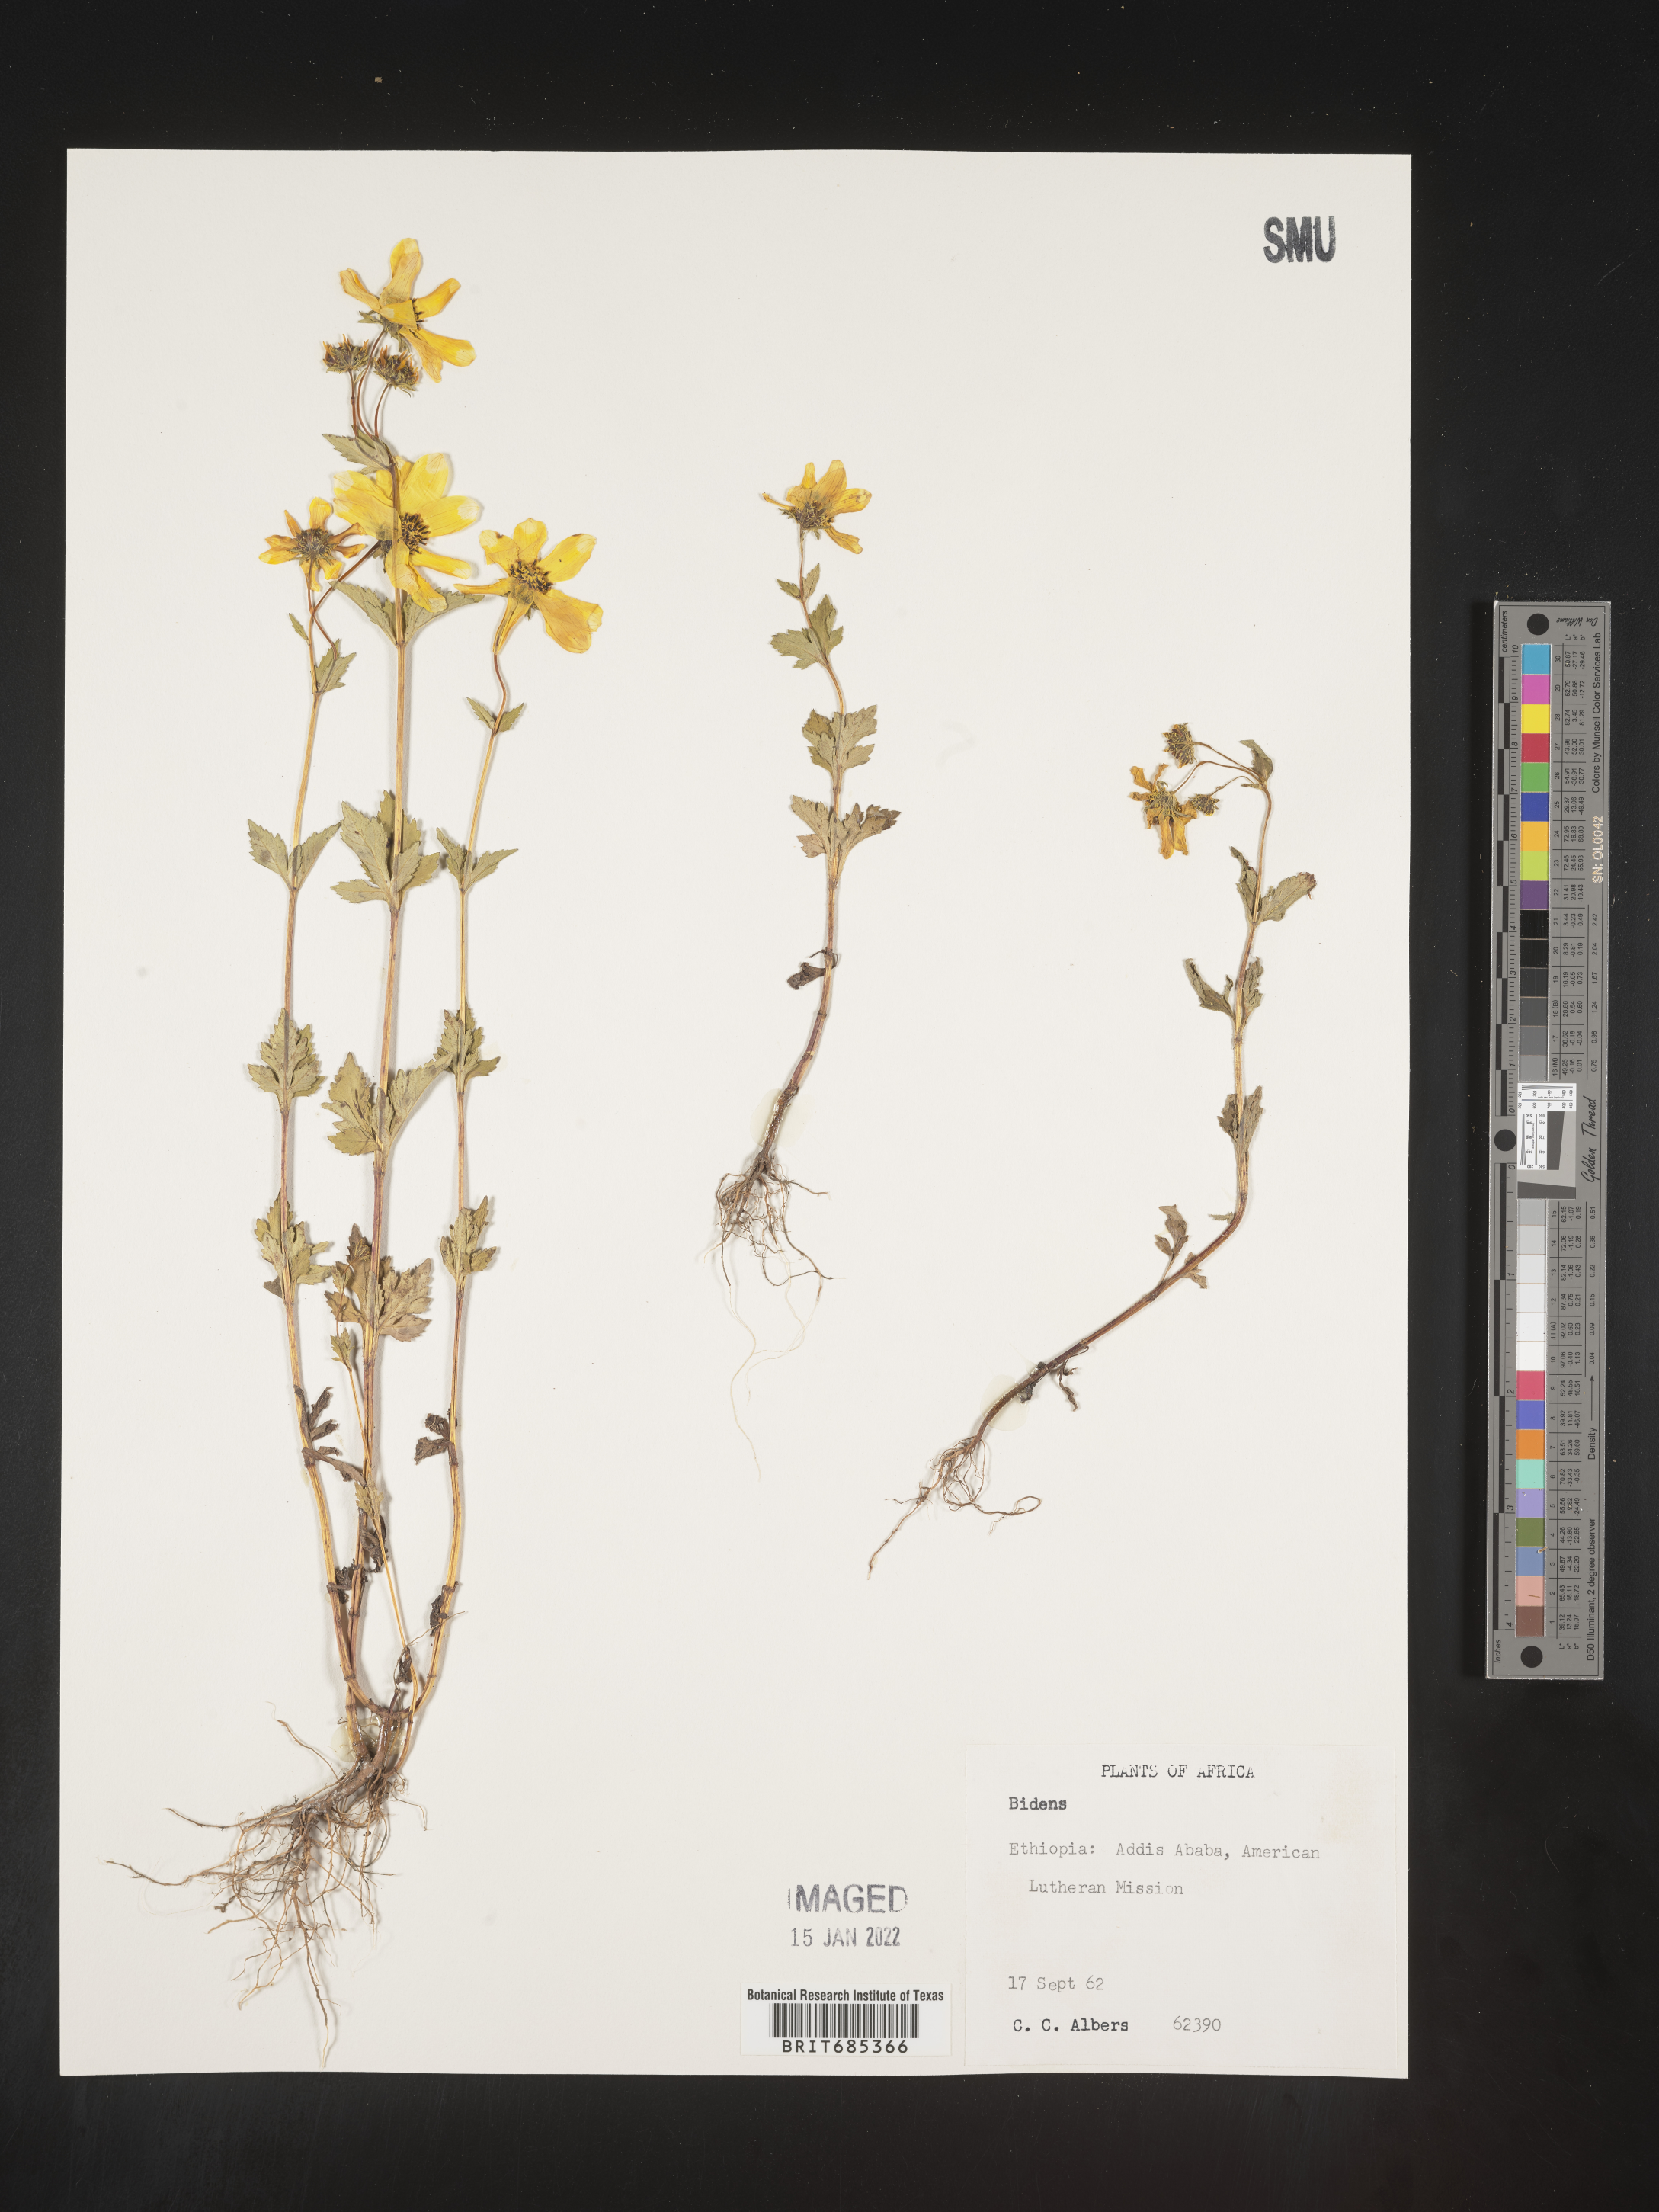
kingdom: Plantae
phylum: Tracheophyta
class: Magnoliopsida
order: Asterales
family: Asteraceae
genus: Bidens
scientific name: Bidens
